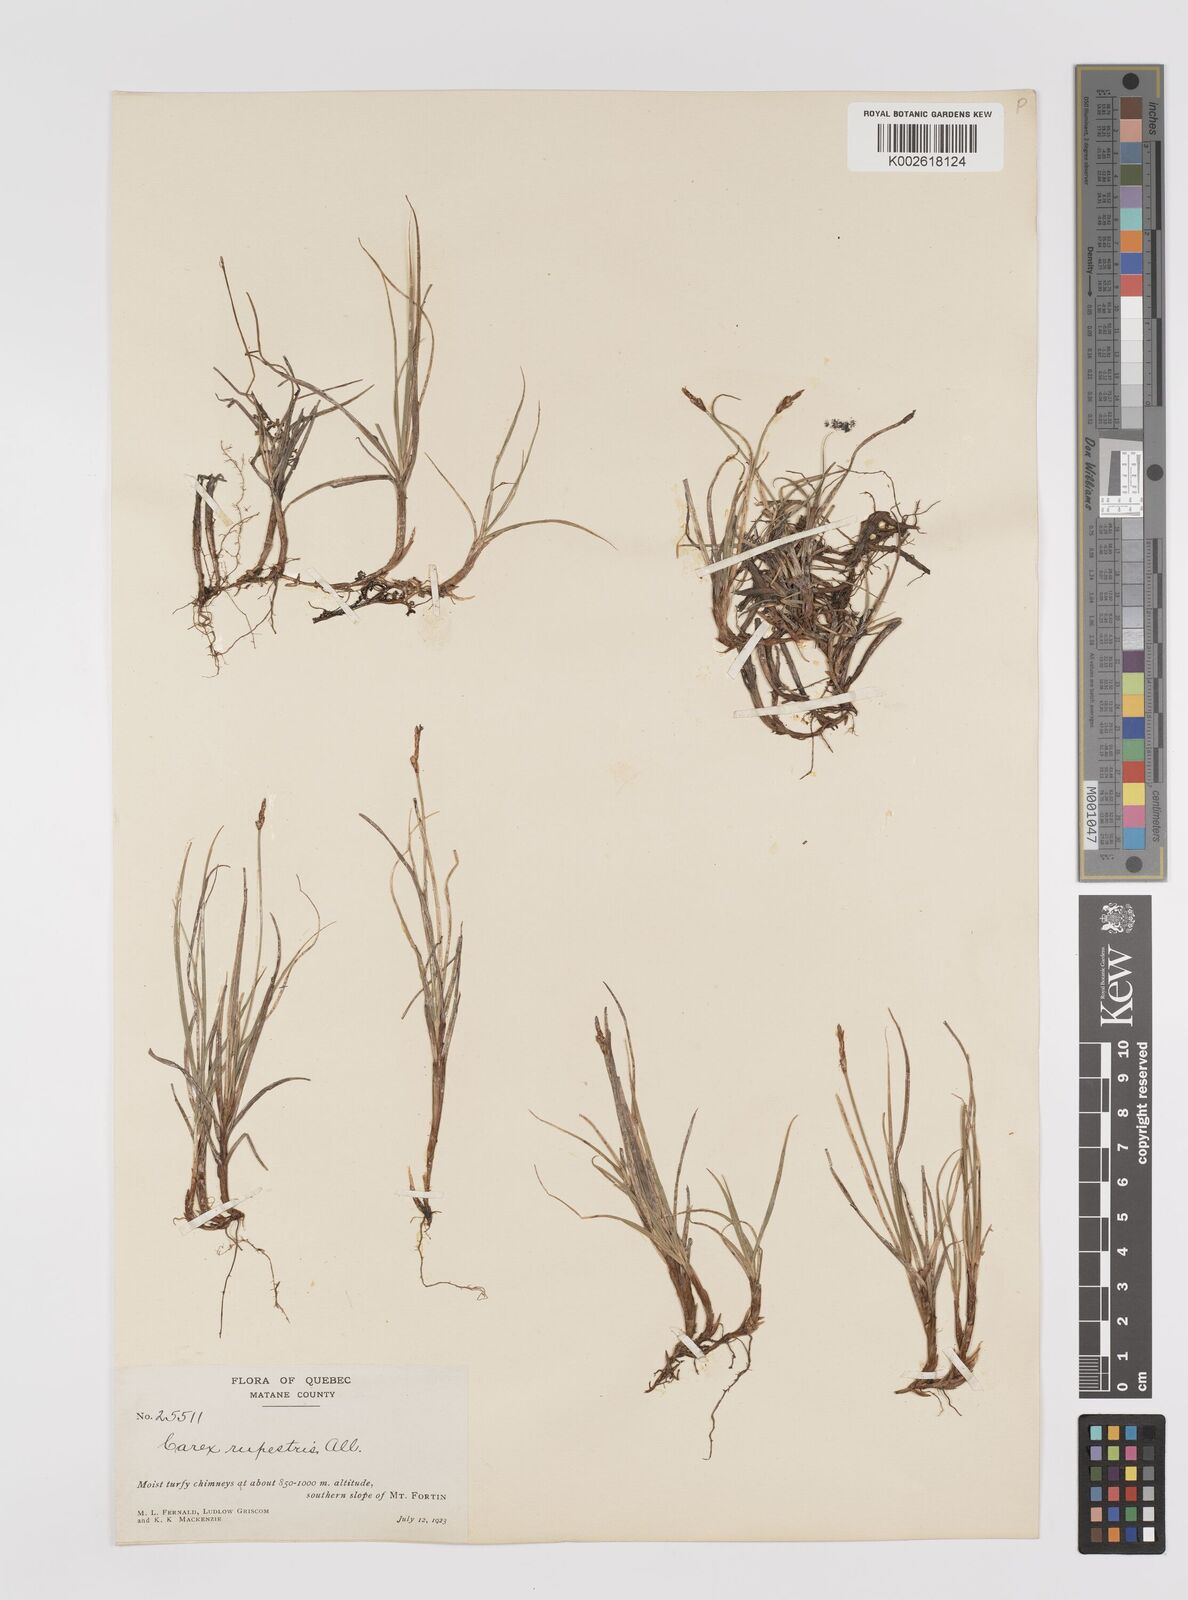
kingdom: Plantae
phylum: Tracheophyta
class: Liliopsida
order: Poales
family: Cyperaceae
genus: Carex
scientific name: Carex rupestris
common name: Rock sedge
